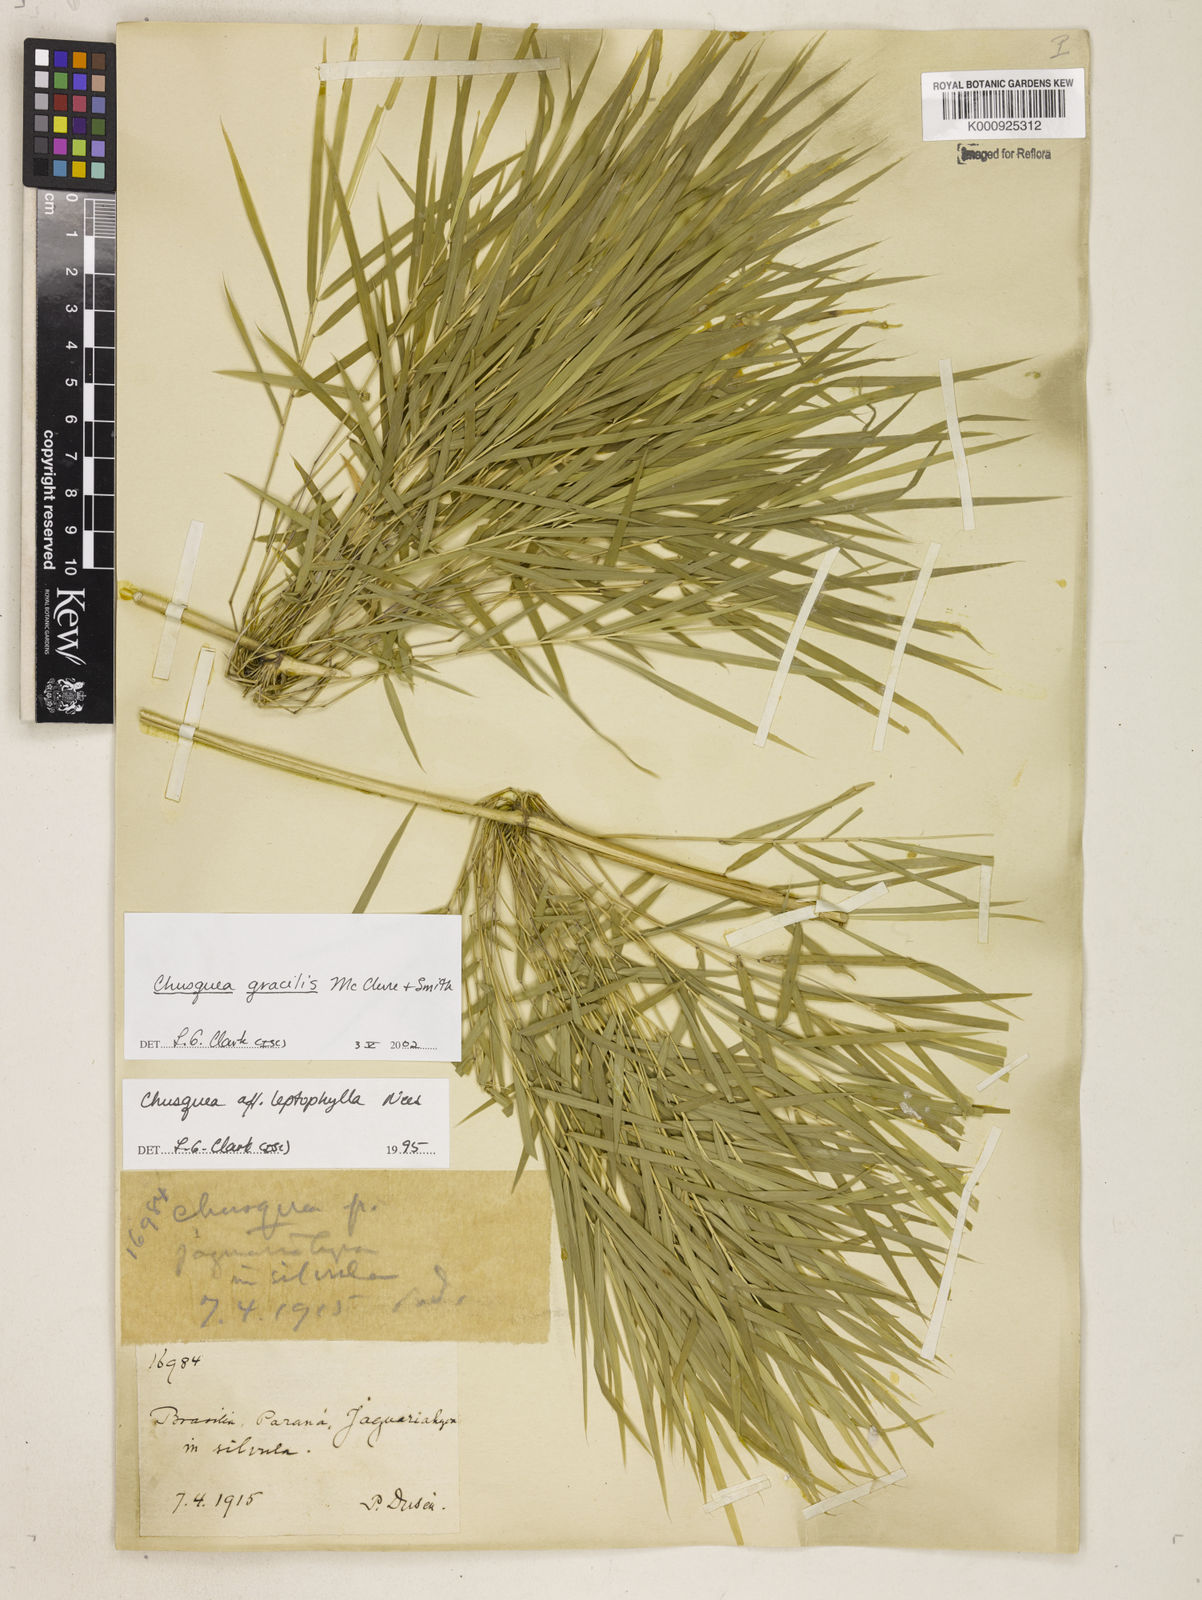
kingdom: Plantae
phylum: Tracheophyta
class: Liliopsida
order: Poales
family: Poaceae
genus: Chusquea
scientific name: Chusquea gracilis
